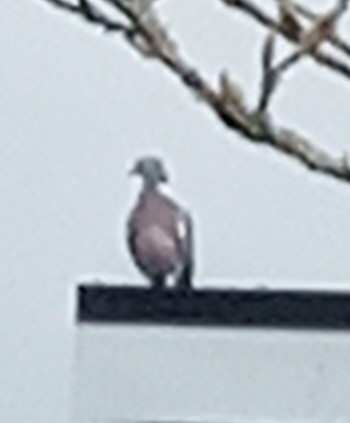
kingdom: Animalia
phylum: Chordata
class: Aves
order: Columbiformes
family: Columbidae
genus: Columba
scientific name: Columba palumbus
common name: Ringdue
